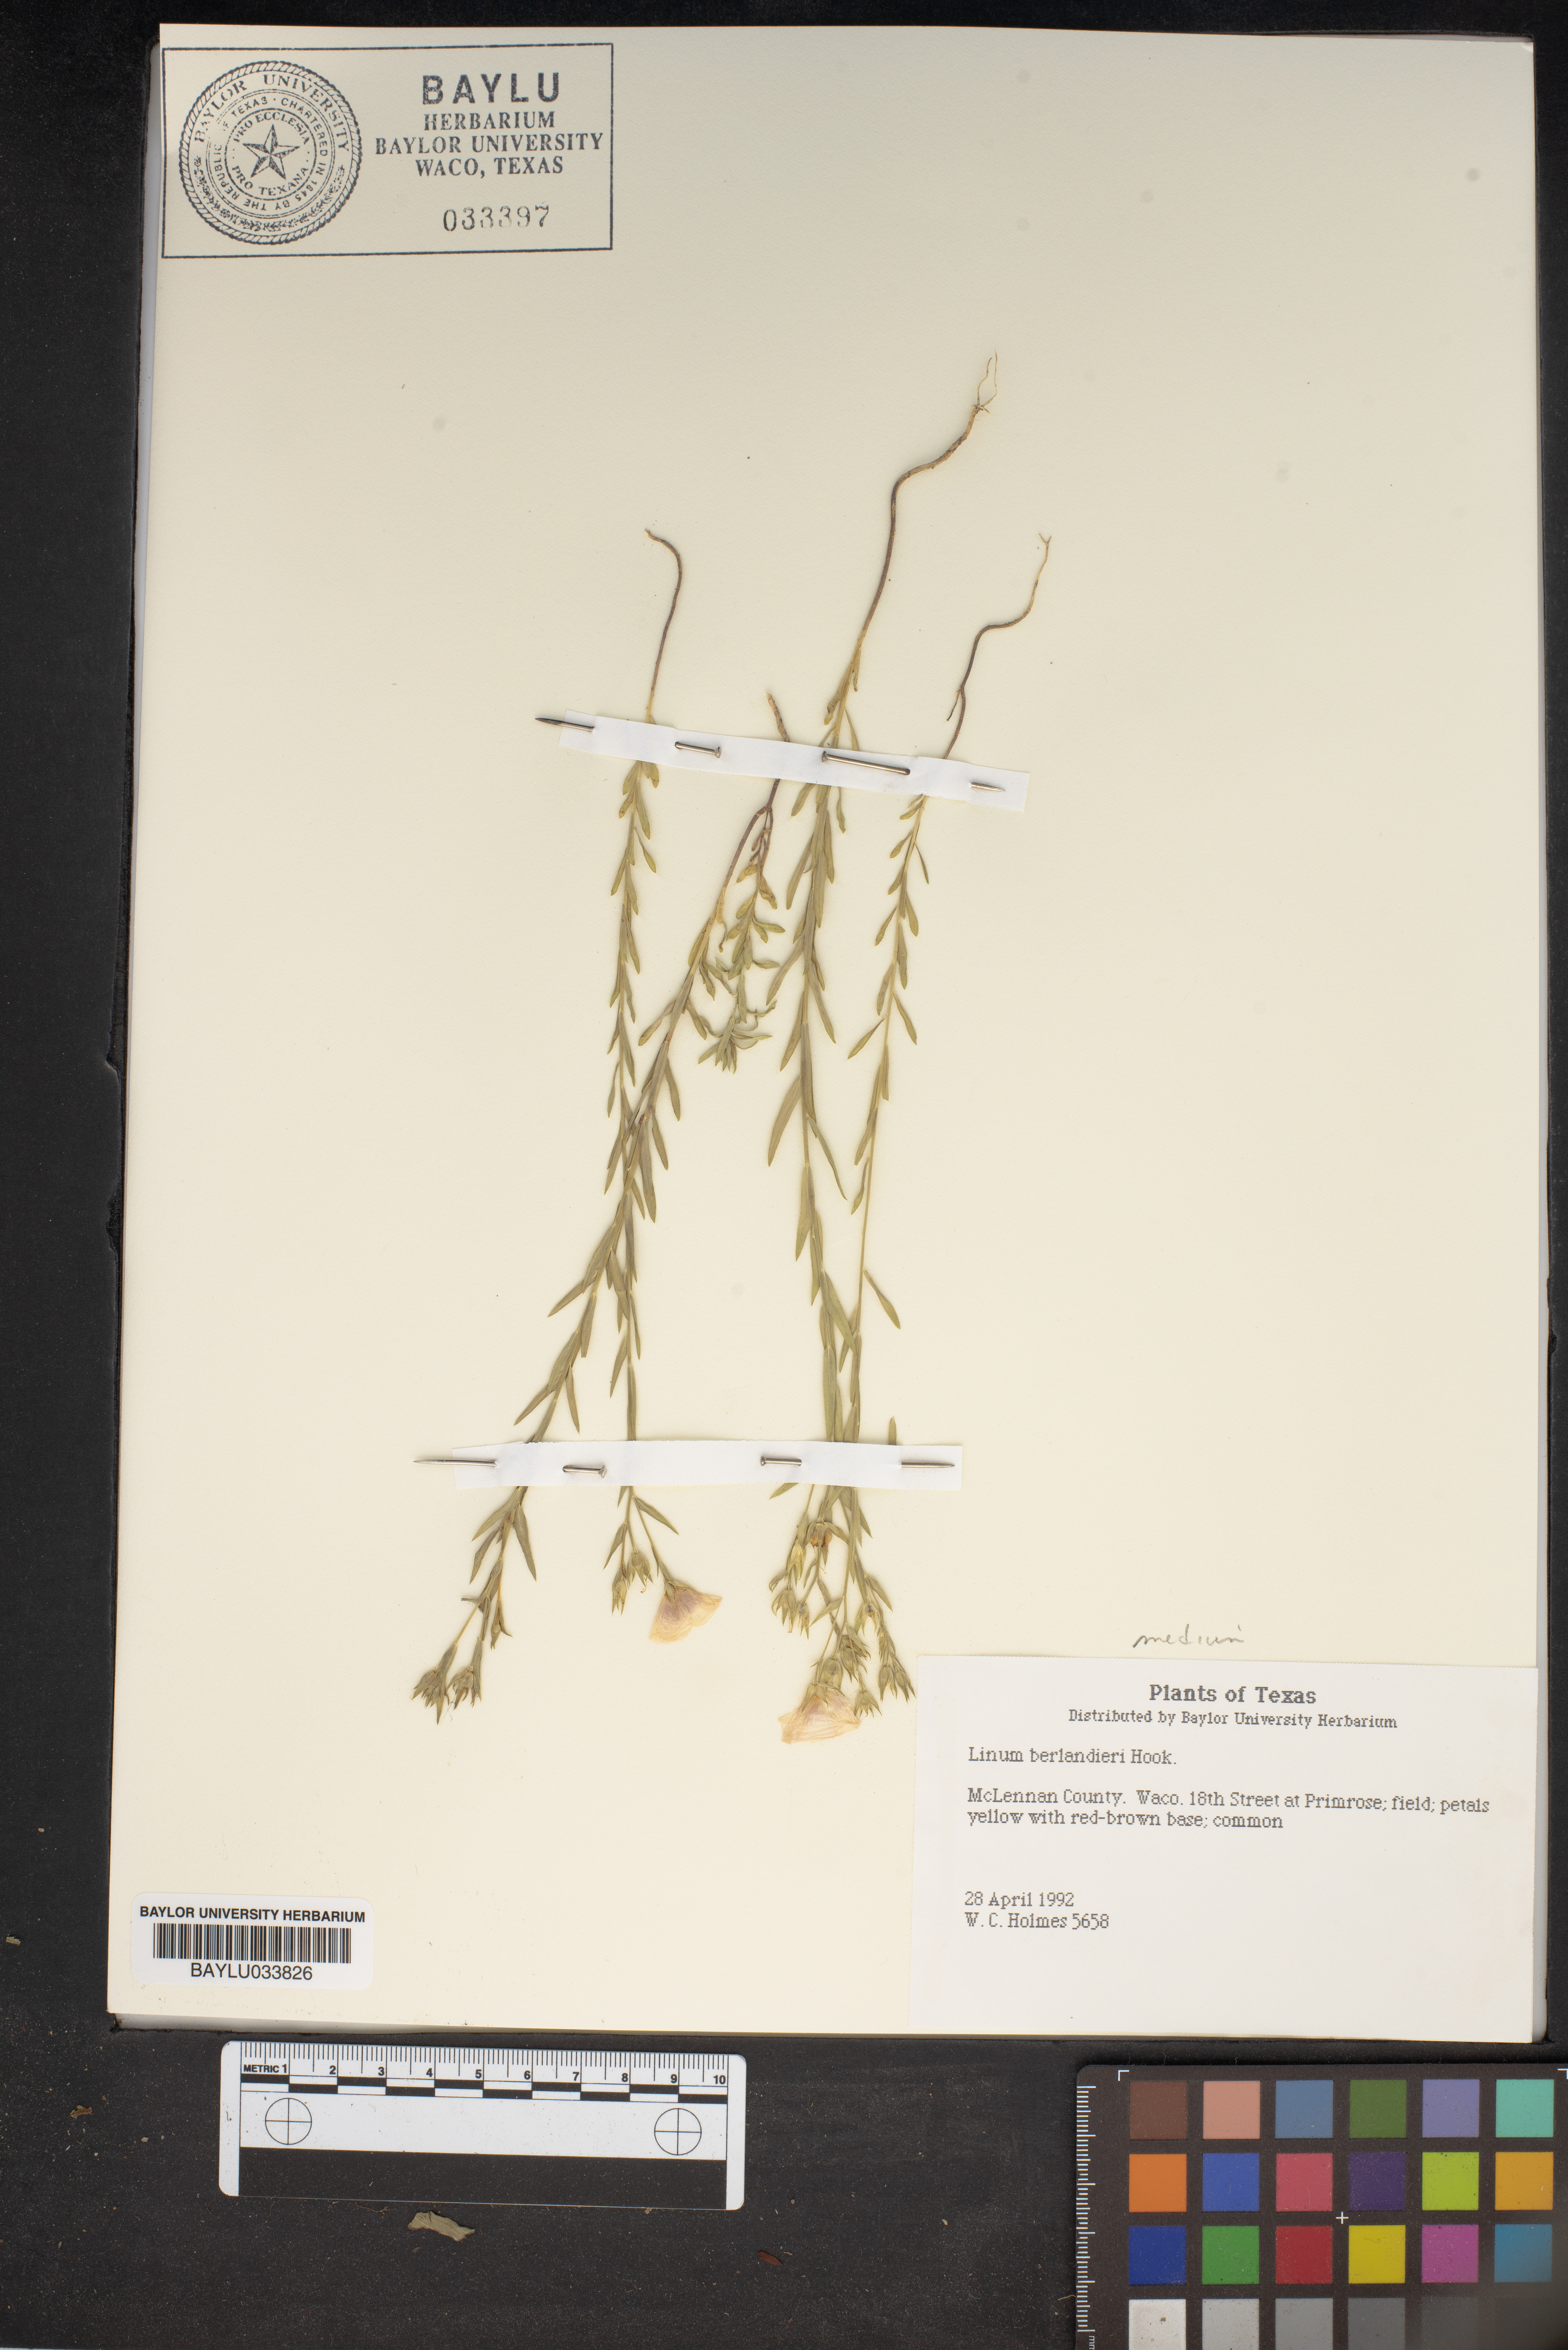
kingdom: Plantae
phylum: Tracheophyta
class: Magnoliopsida
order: Malpighiales
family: Linaceae
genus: Linum
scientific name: Linum berlandieri
